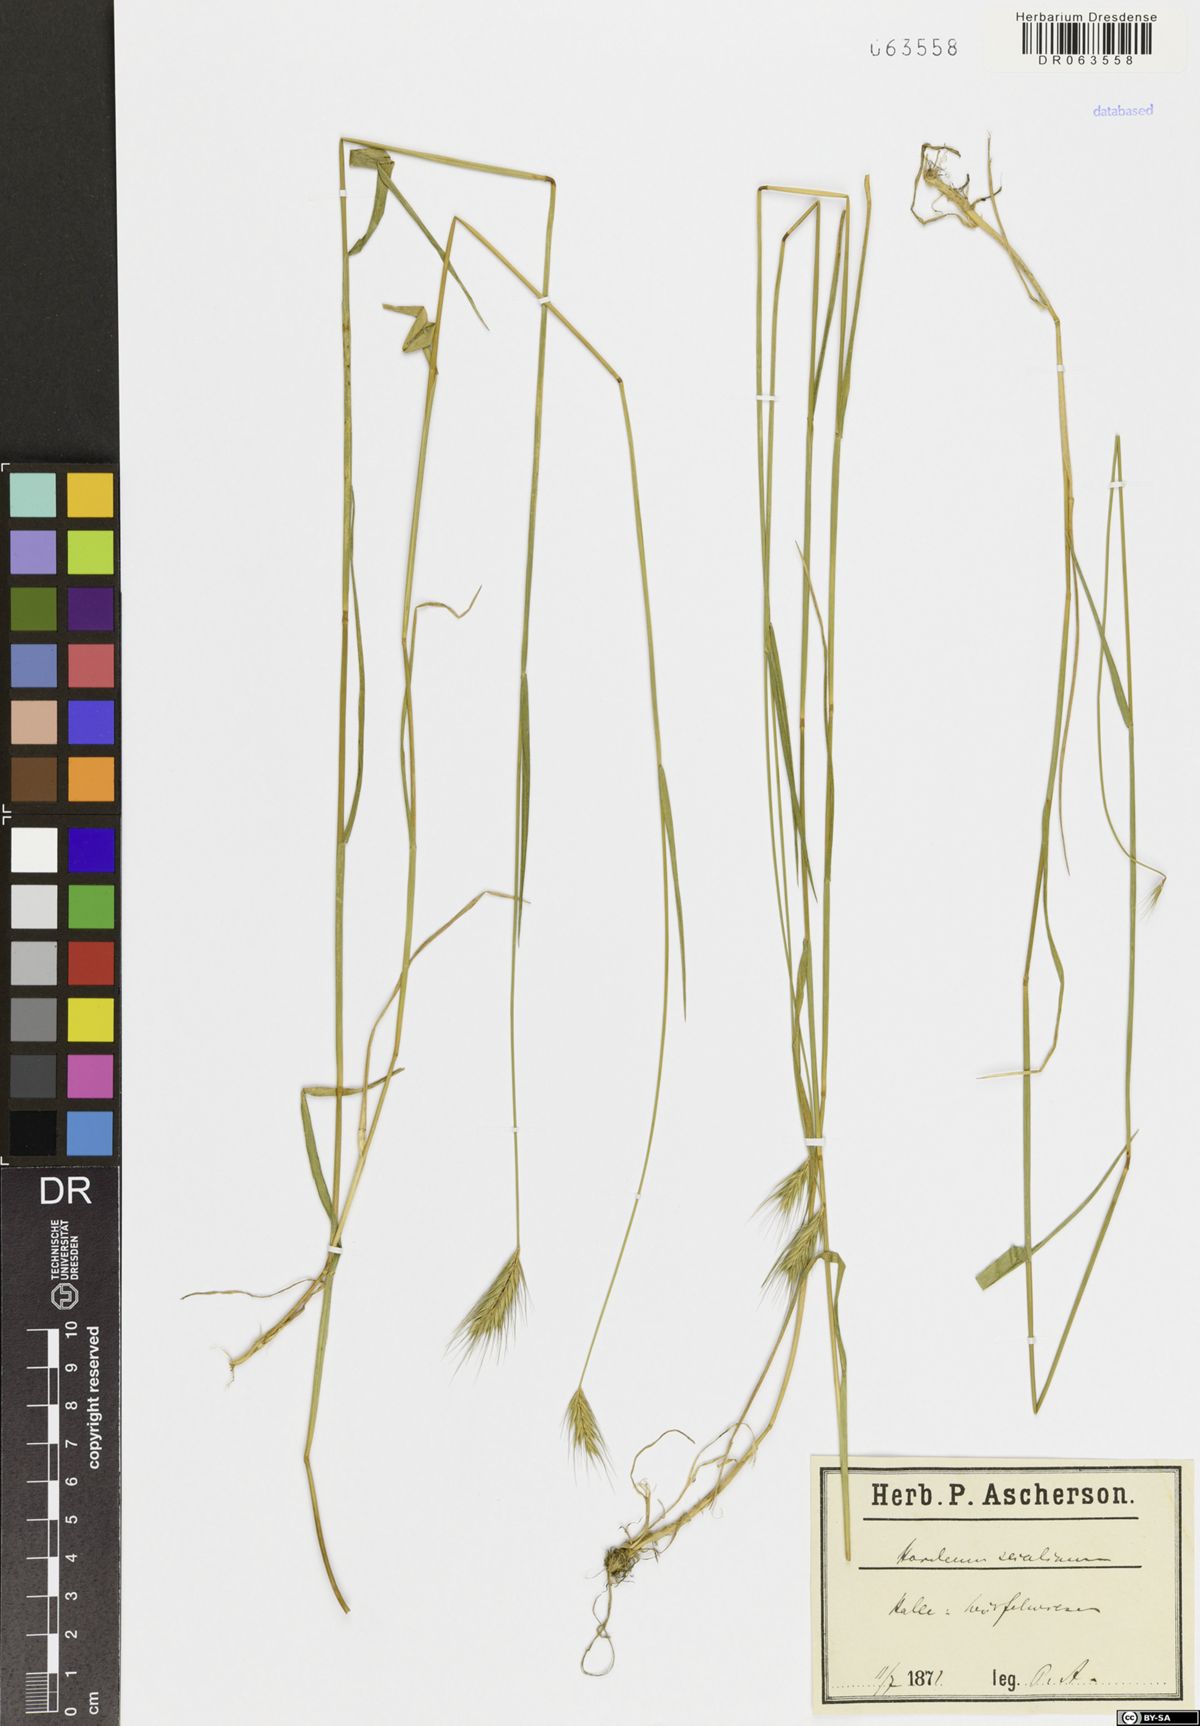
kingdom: Plantae
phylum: Tracheophyta
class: Liliopsida
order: Poales
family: Poaceae
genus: Hordeum
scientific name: Hordeum secalinum
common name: Meadow barley
